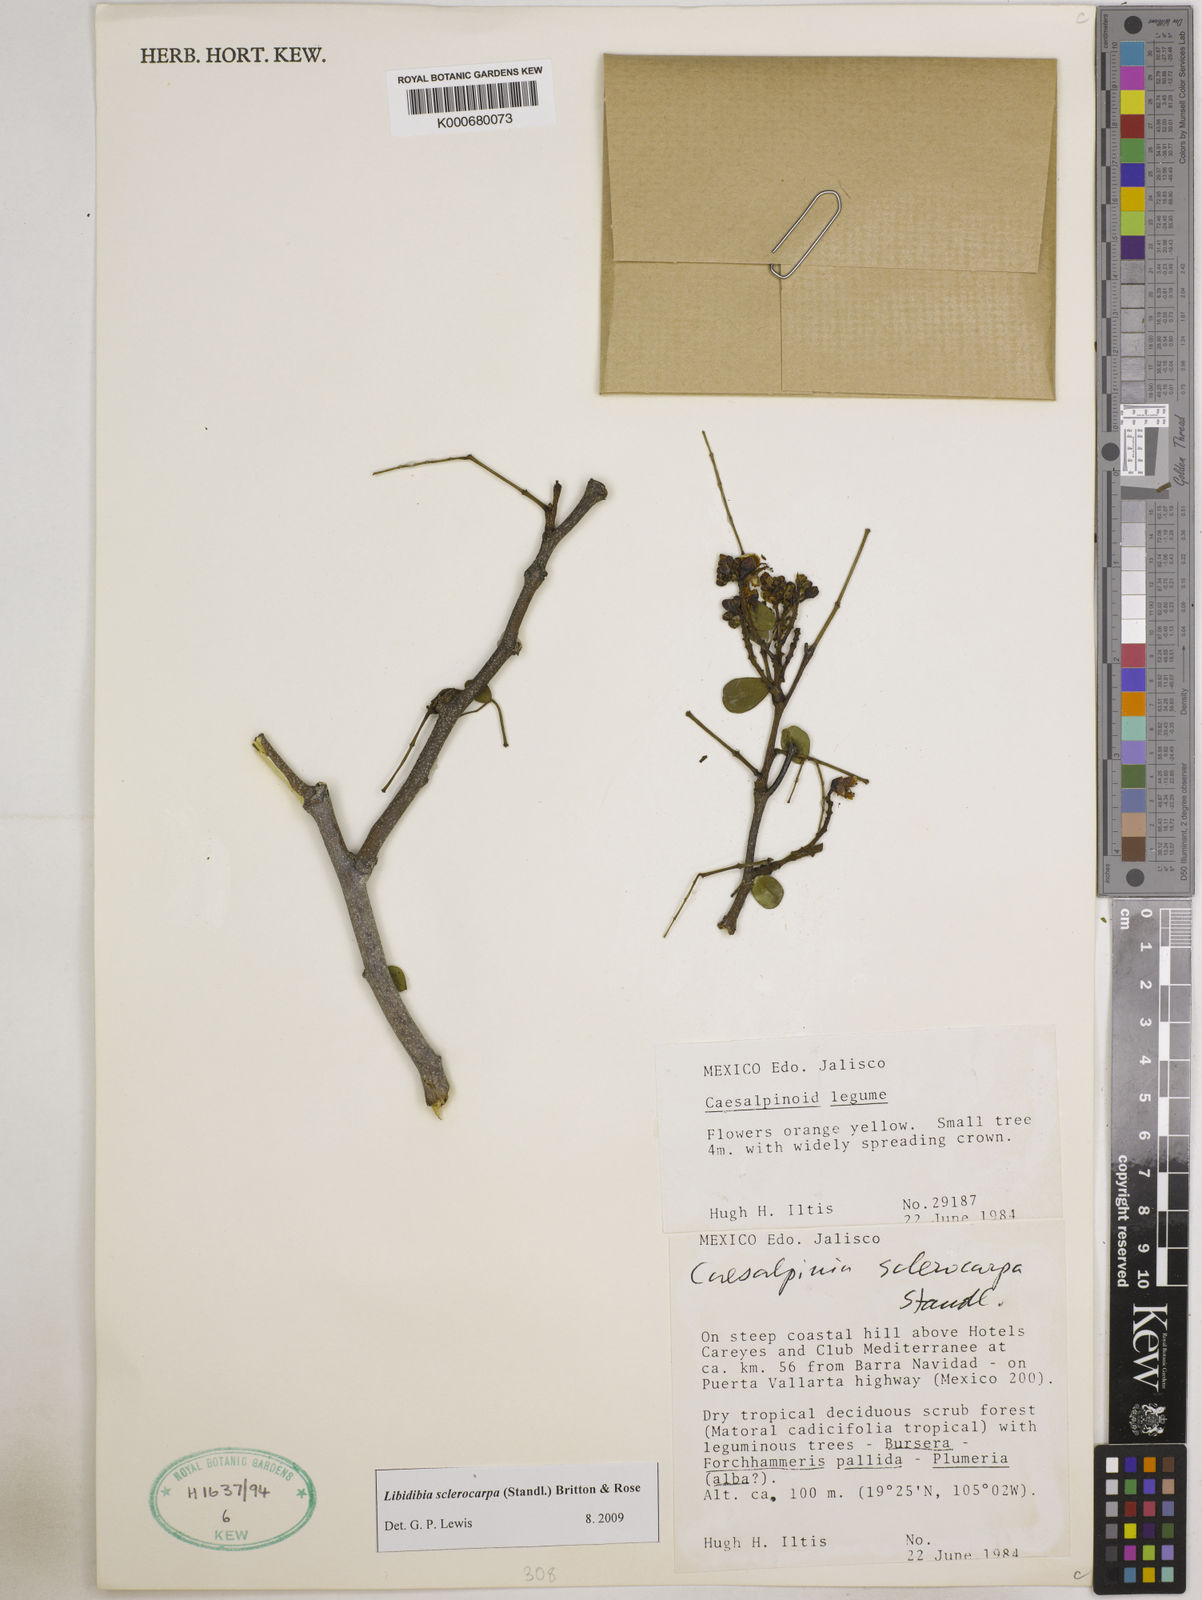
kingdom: Plantae
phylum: Tracheophyta
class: Magnoliopsida
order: Fabales
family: Fabaceae
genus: Libidibia
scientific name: Libidibia sclerocarpa
